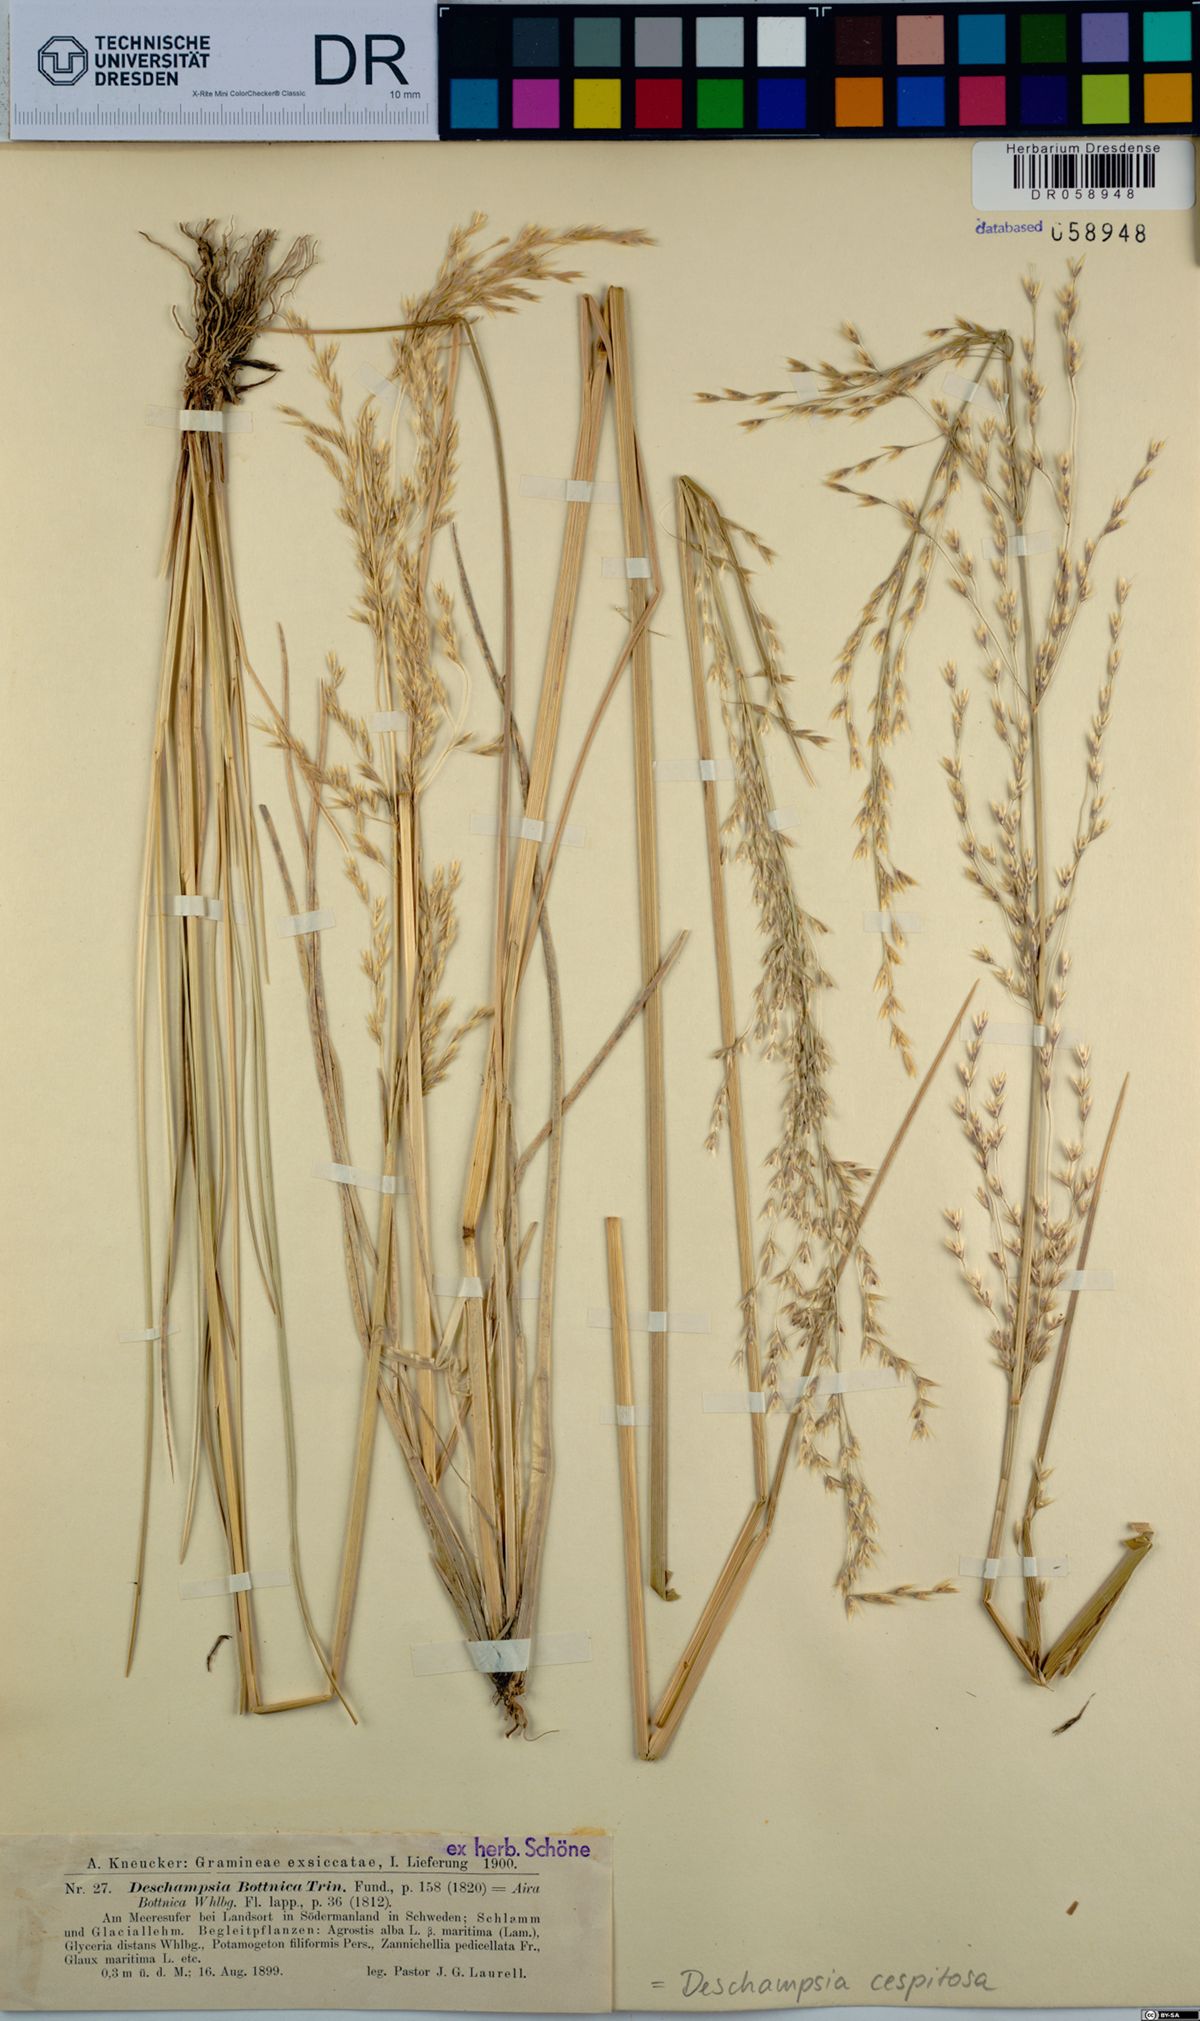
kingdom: Plantae
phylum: Tracheophyta
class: Liliopsida
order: Poales
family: Poaceae
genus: Deschampsia
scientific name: Deschampsia cespitosa
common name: Tufted hair-grass
